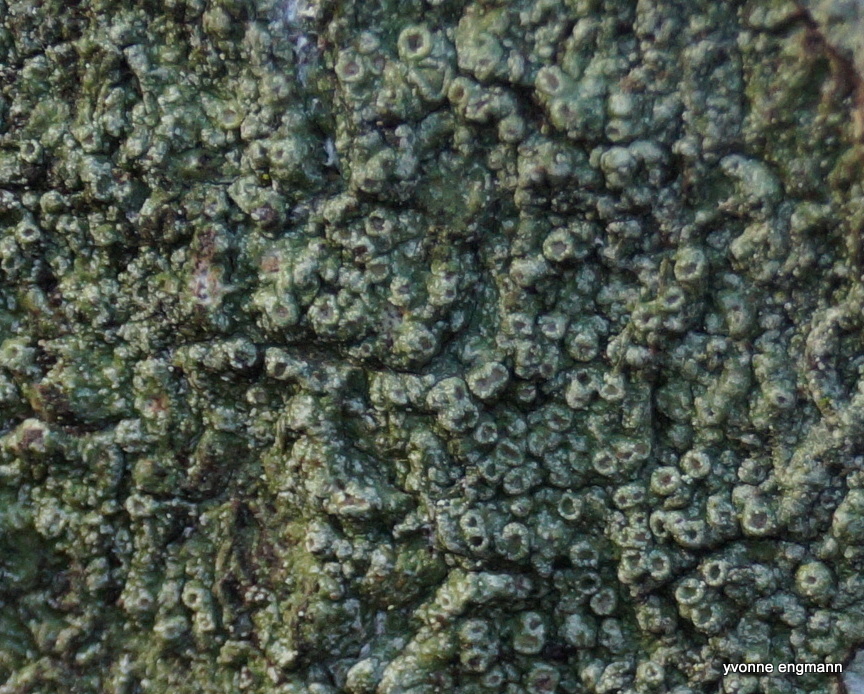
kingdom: Fungi
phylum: Ascomycota
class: Lecanoromycetes
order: Pertusariales
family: Pertusariaceae
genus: Pertusaria
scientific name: Pertusaria hymenea
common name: åben prikvortelav
